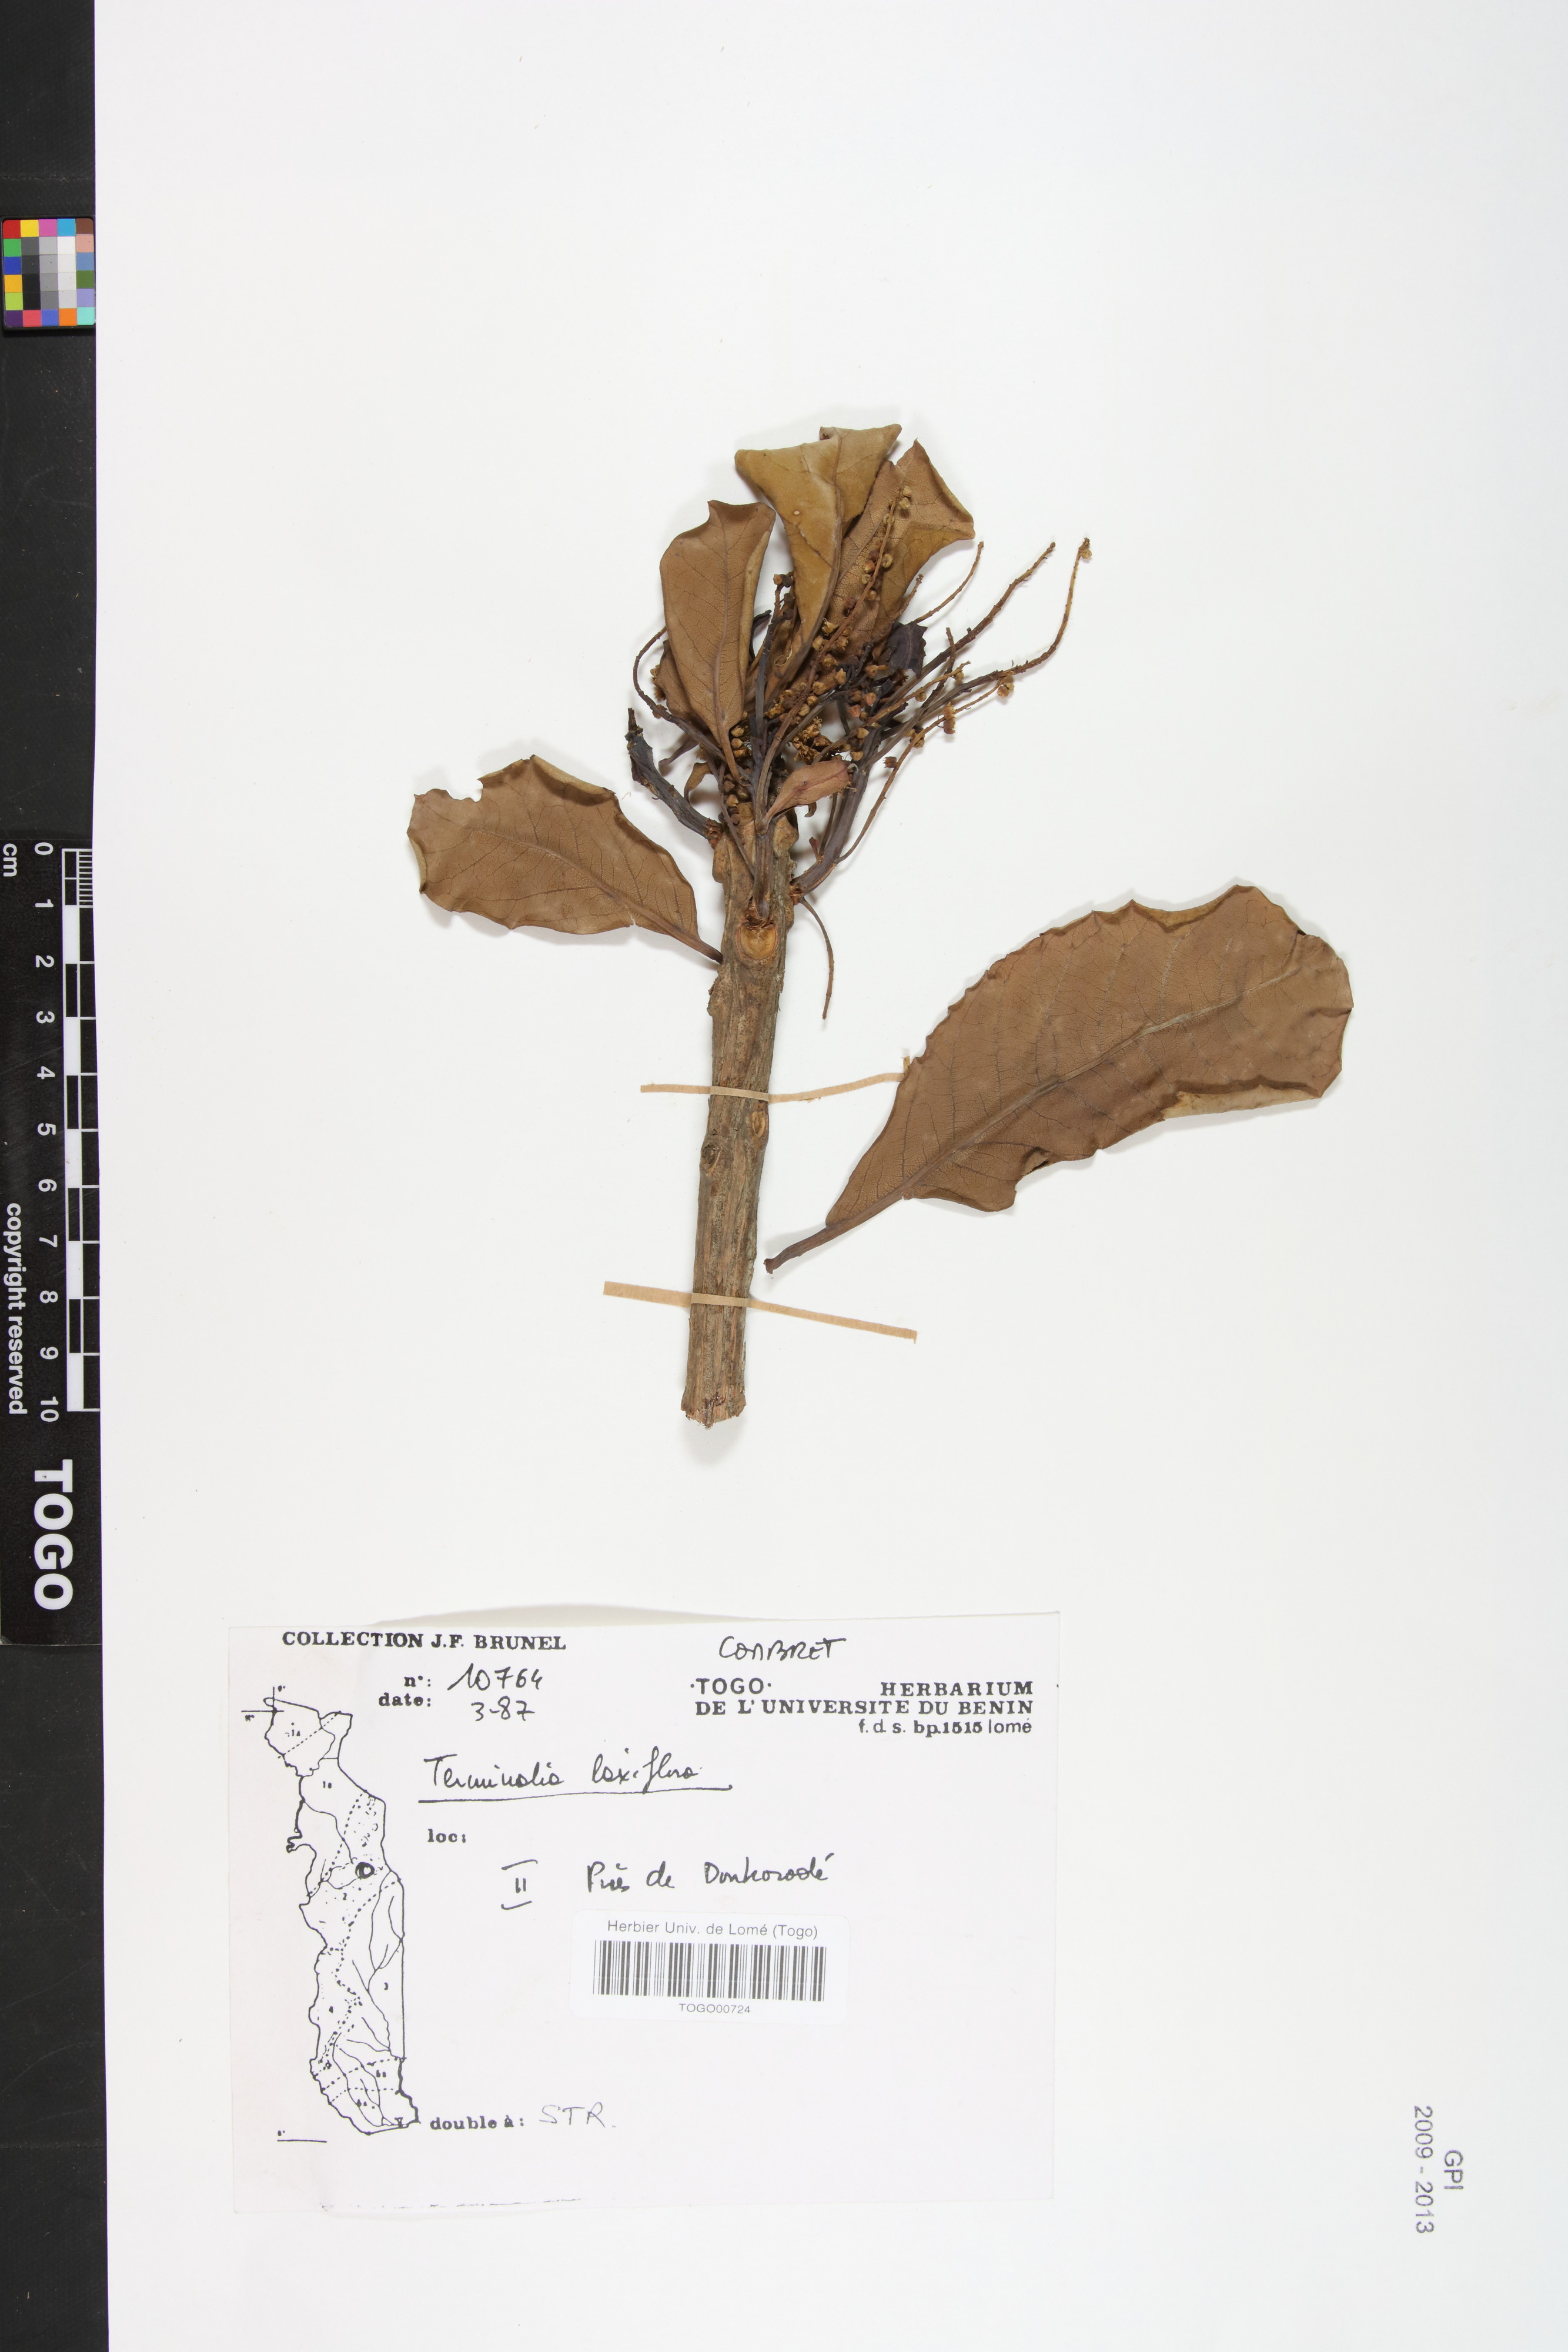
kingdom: Plantae
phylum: Tracheophyta
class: Magnoliopsida
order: Myrtales
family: Combretaceae
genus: Terminalia
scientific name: Terminalia laxiflora
